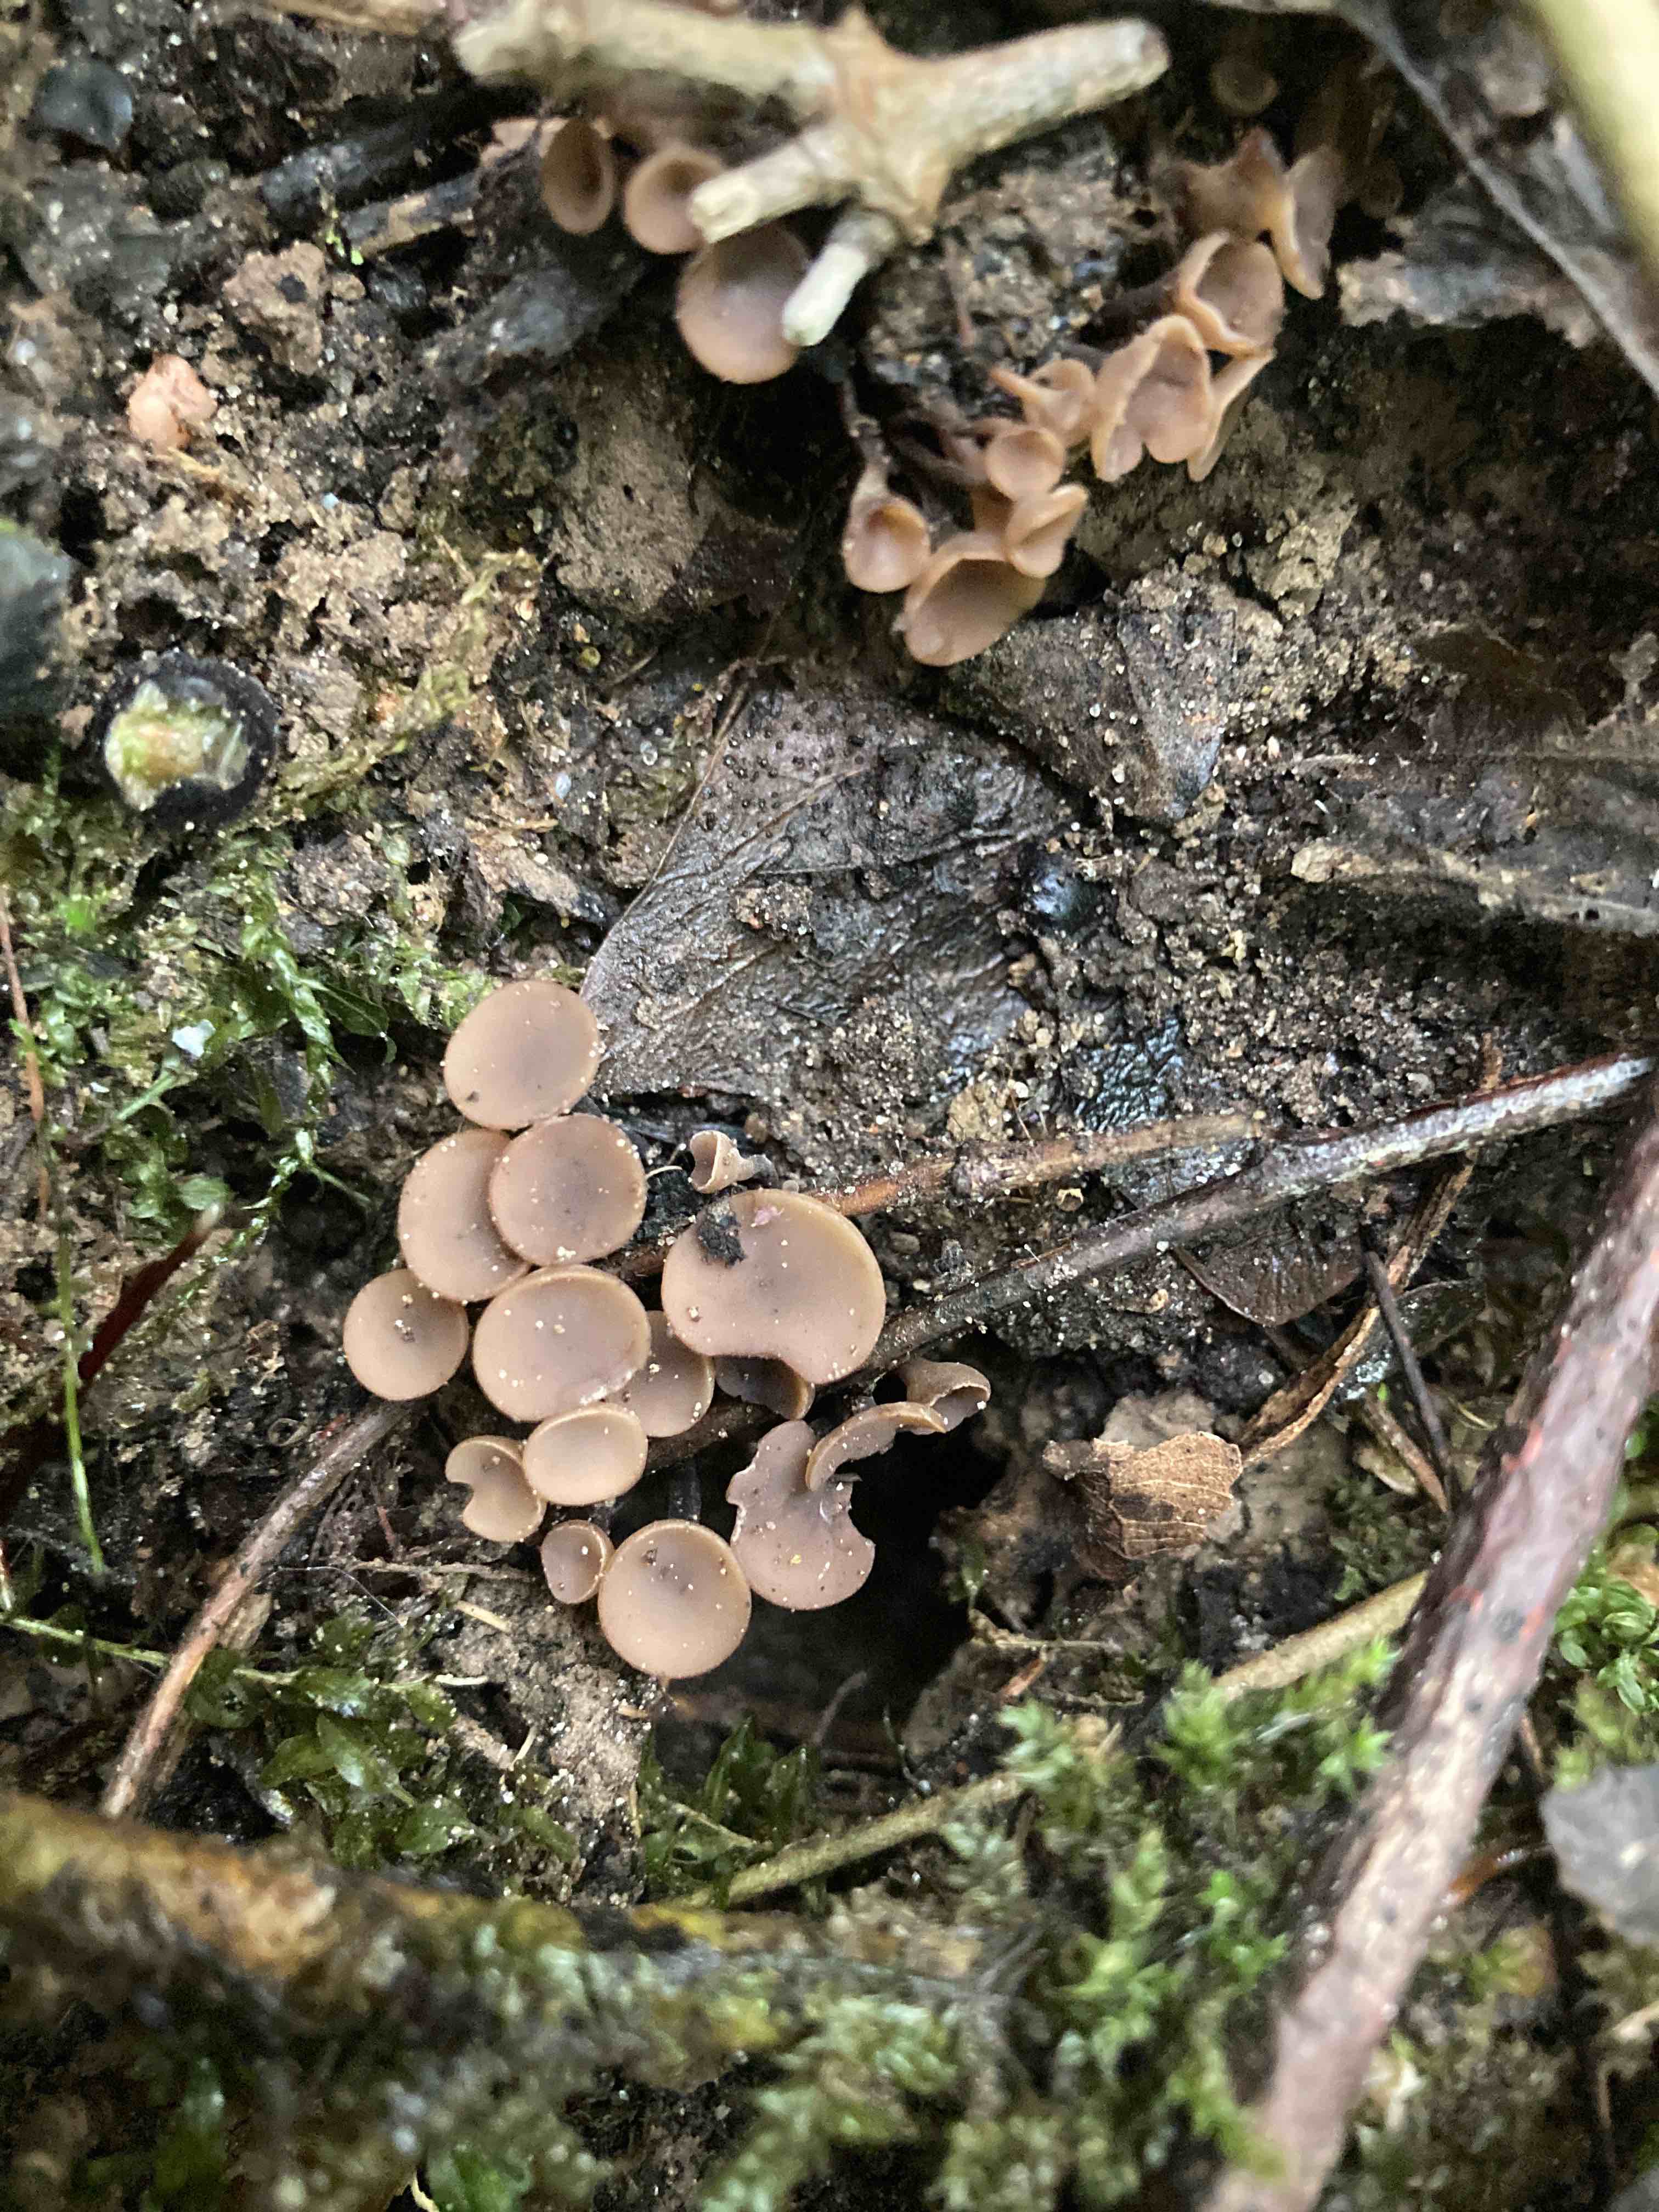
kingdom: Fungi
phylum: Ascomycota
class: Leotiomycetes
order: Helotiales
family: Sclerotiniaceae
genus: Ciboria
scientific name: Ciboria batschiana
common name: agern-knoldskive
